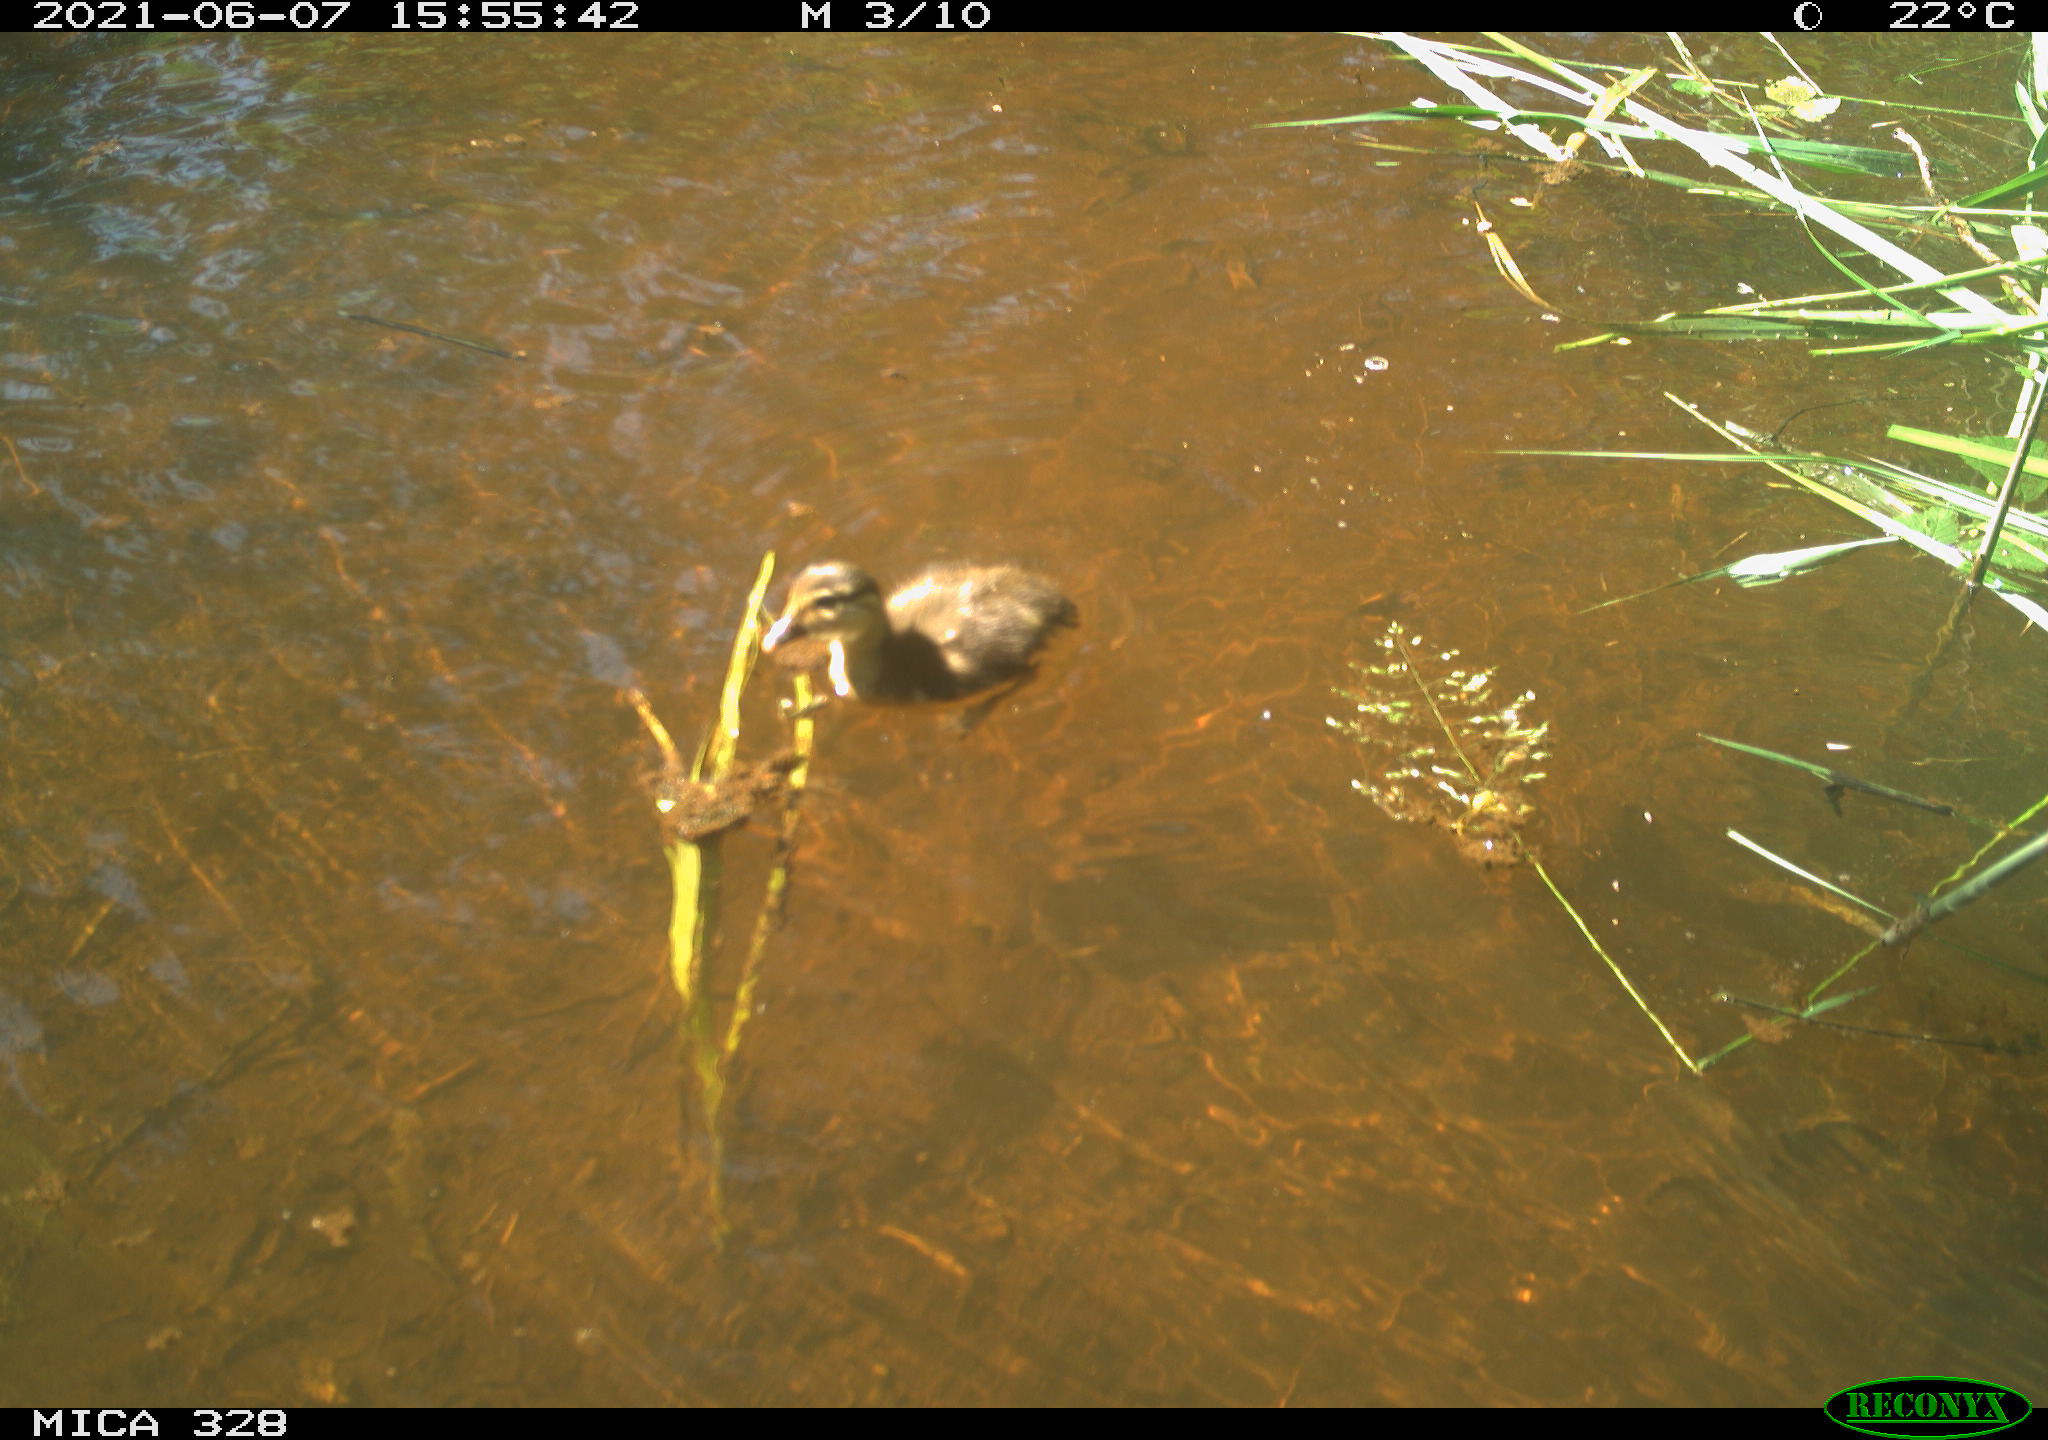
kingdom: Animalia
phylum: Chordata
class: Aves
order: Anseriformes
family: Anatidae
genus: Aix
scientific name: Aix galericulata
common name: Mandarin duck
